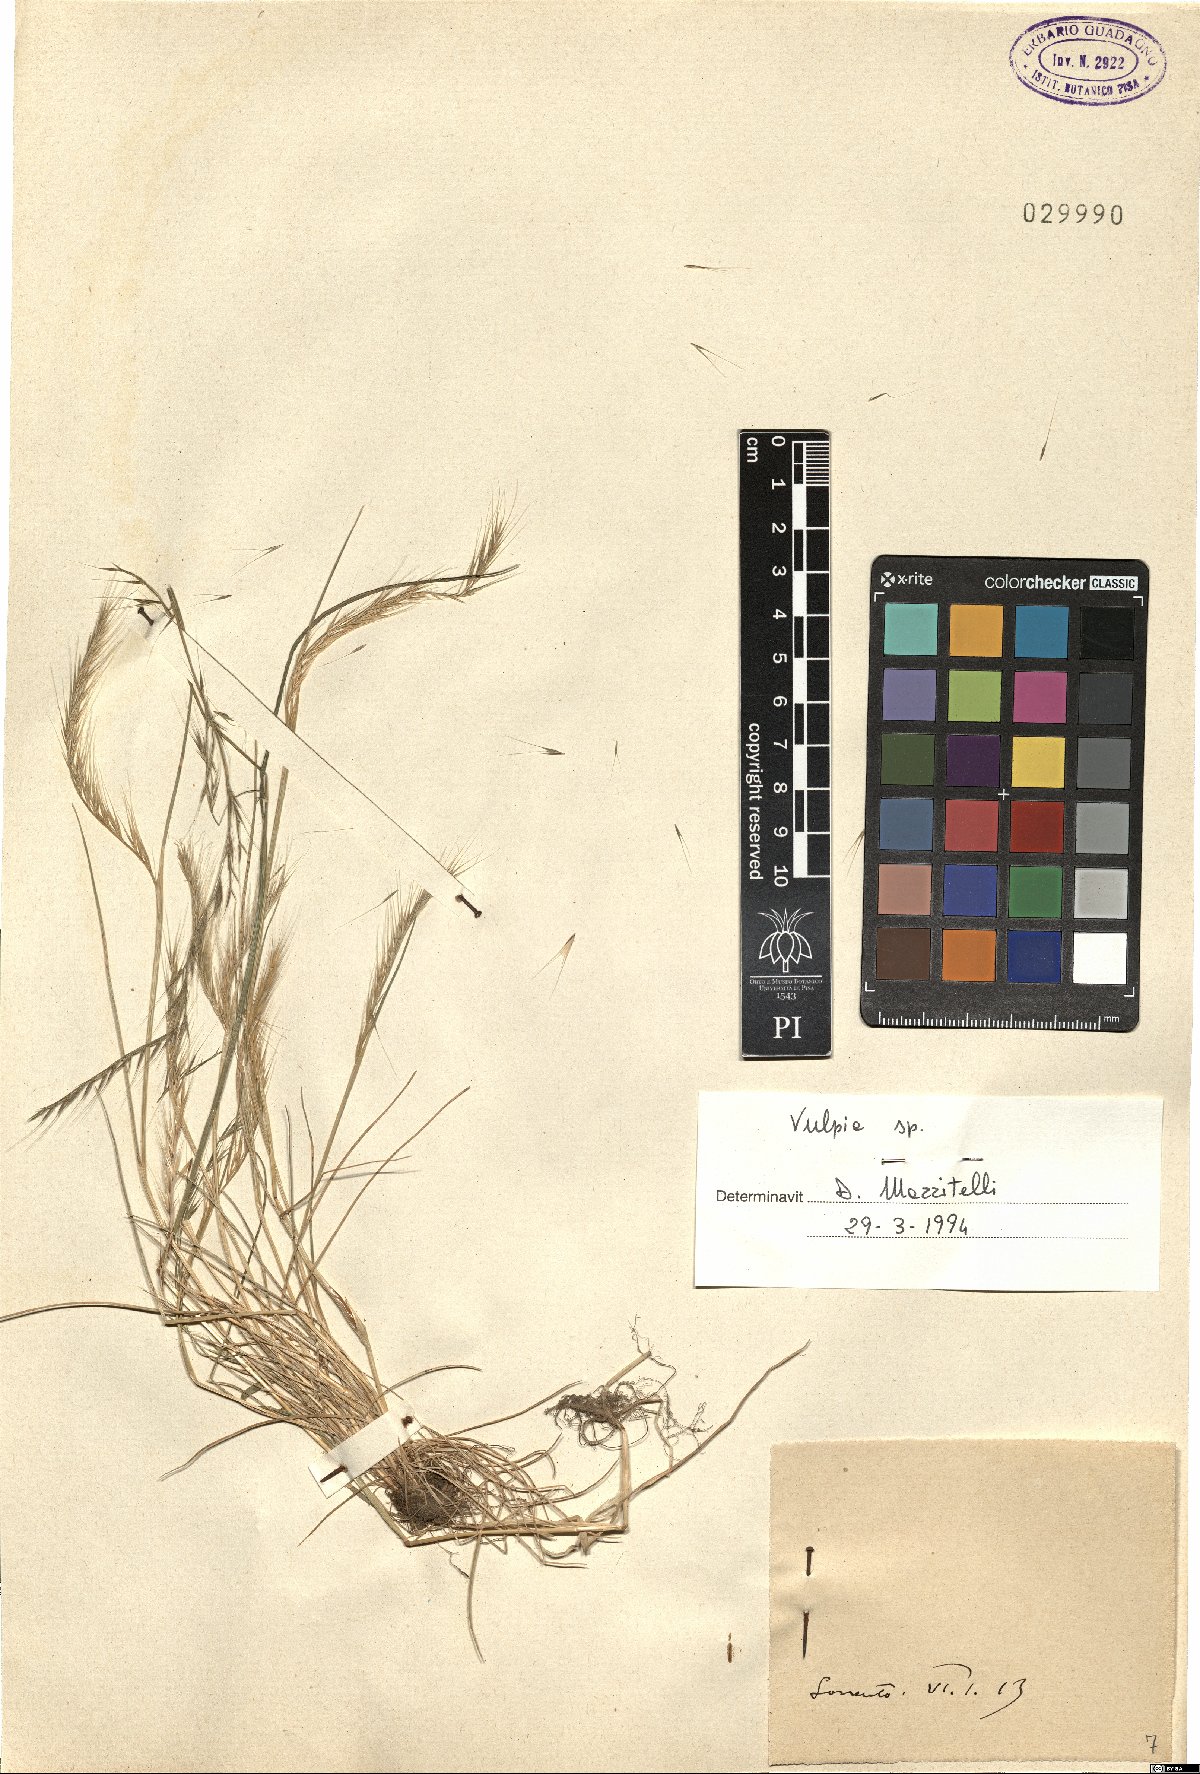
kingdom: Plantae
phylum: Tracheophyta
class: Liliopsida
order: Poales
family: Poaceae
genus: Festuca
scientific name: Festuca
